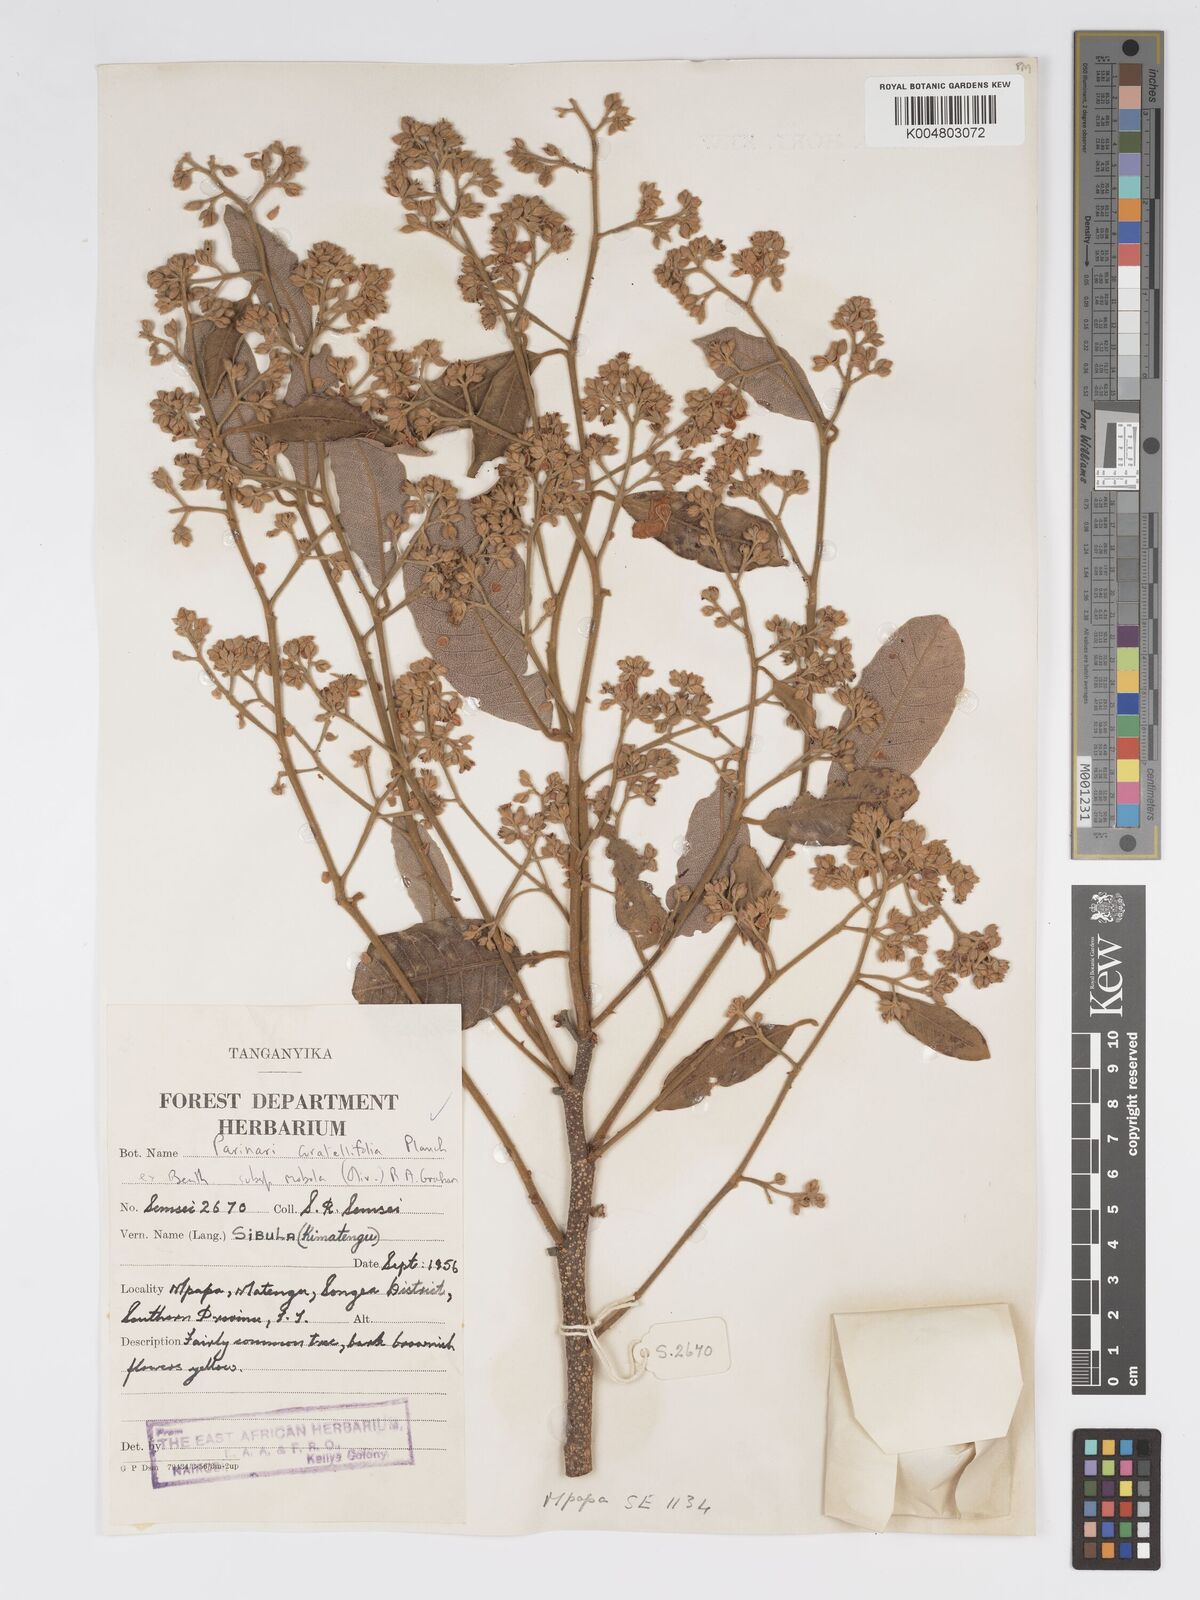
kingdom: Plantae
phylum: Tracheophyta
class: Magnoliopsida
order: Malpighiales
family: Chrysobalanaceae
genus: Parinari
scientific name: Parinari curatellifolia
